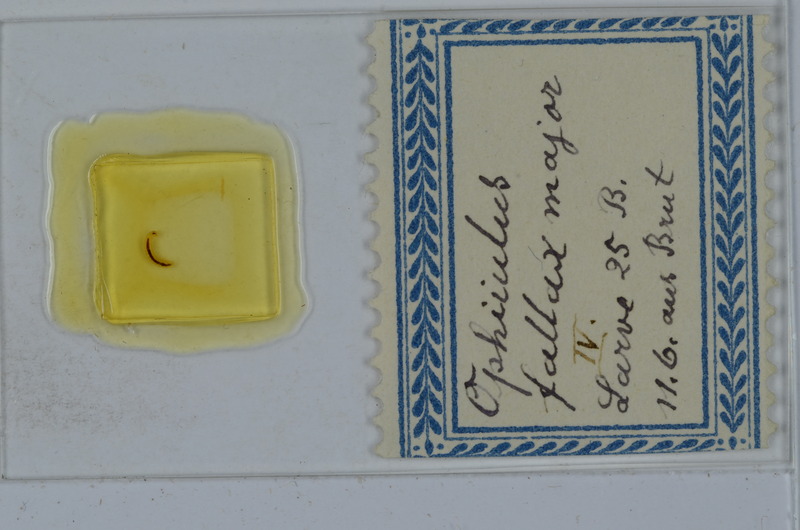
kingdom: Animalia
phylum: Arthropoda
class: Diplopoda
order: Julida
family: Julidae
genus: Ophyiulus
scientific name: Ophyiulus pilosus
